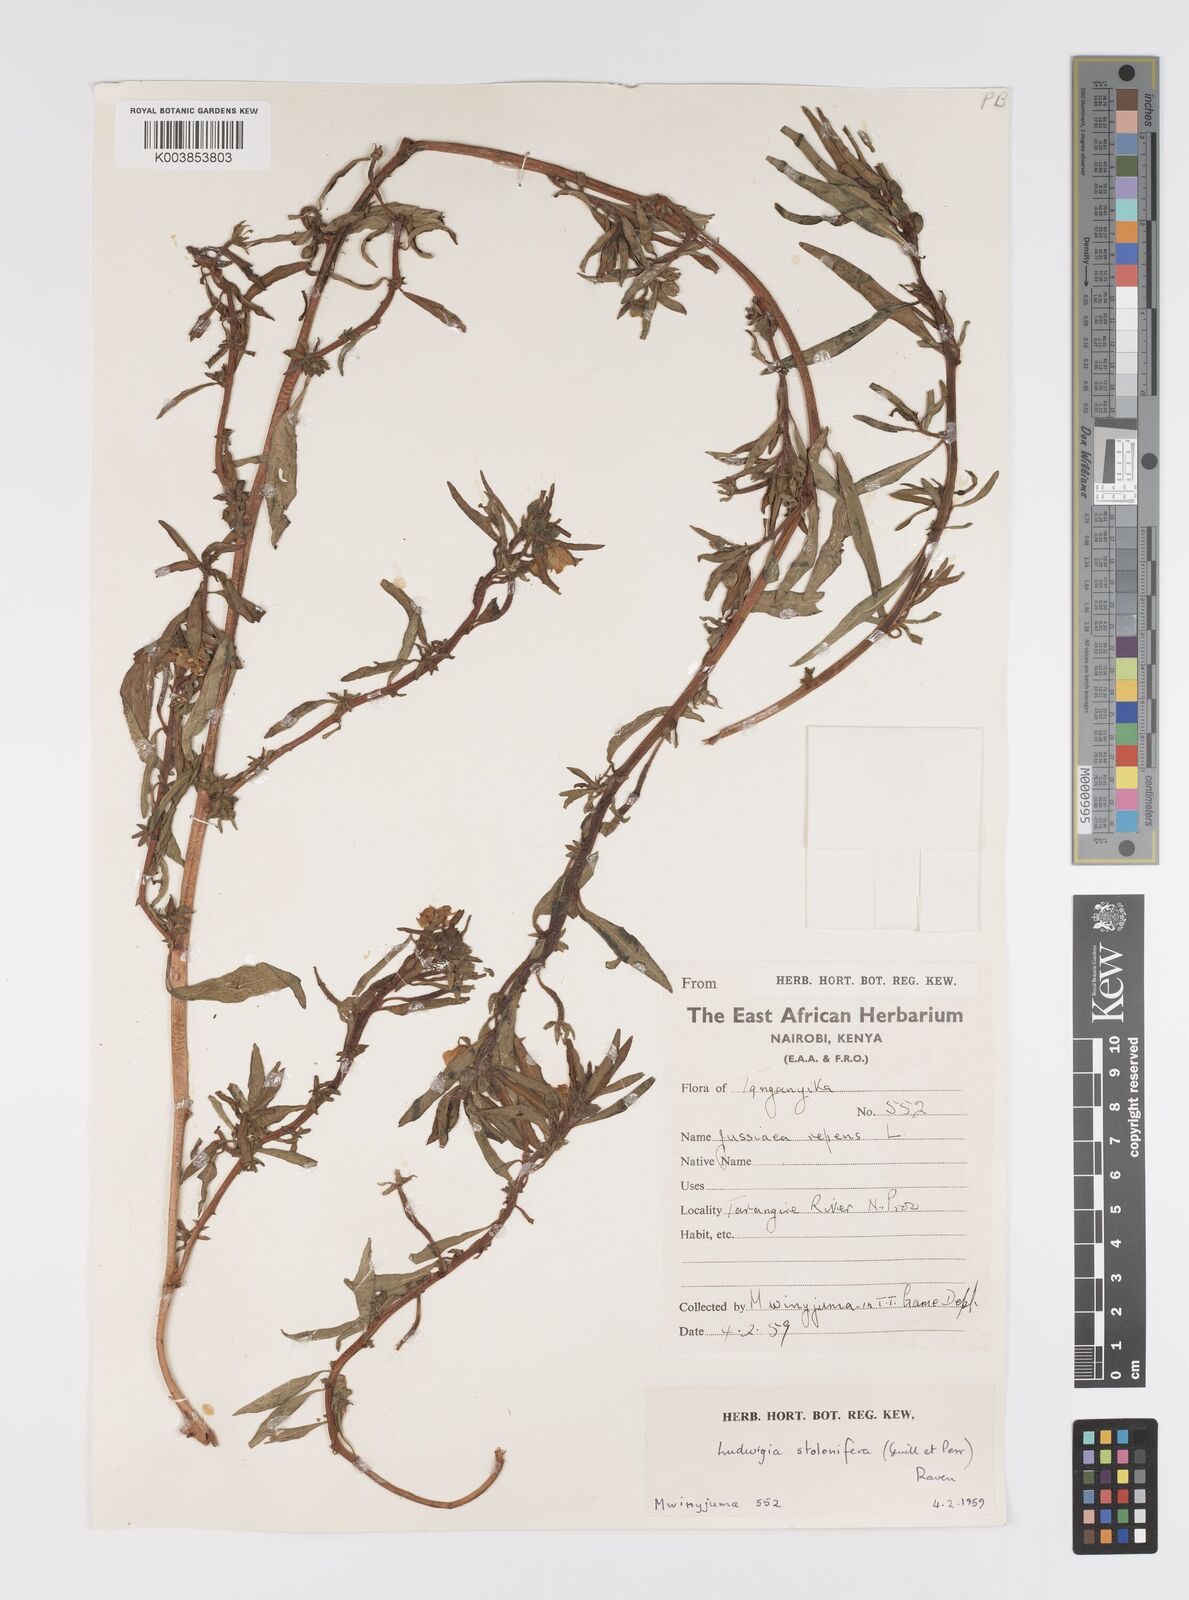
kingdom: Plantae
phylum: Tracheophyta
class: Magnoliopsida
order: Myrtales
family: Onagraceae
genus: Ludwigia
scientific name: Ludwigia adscendens
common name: Creeping water primrose
